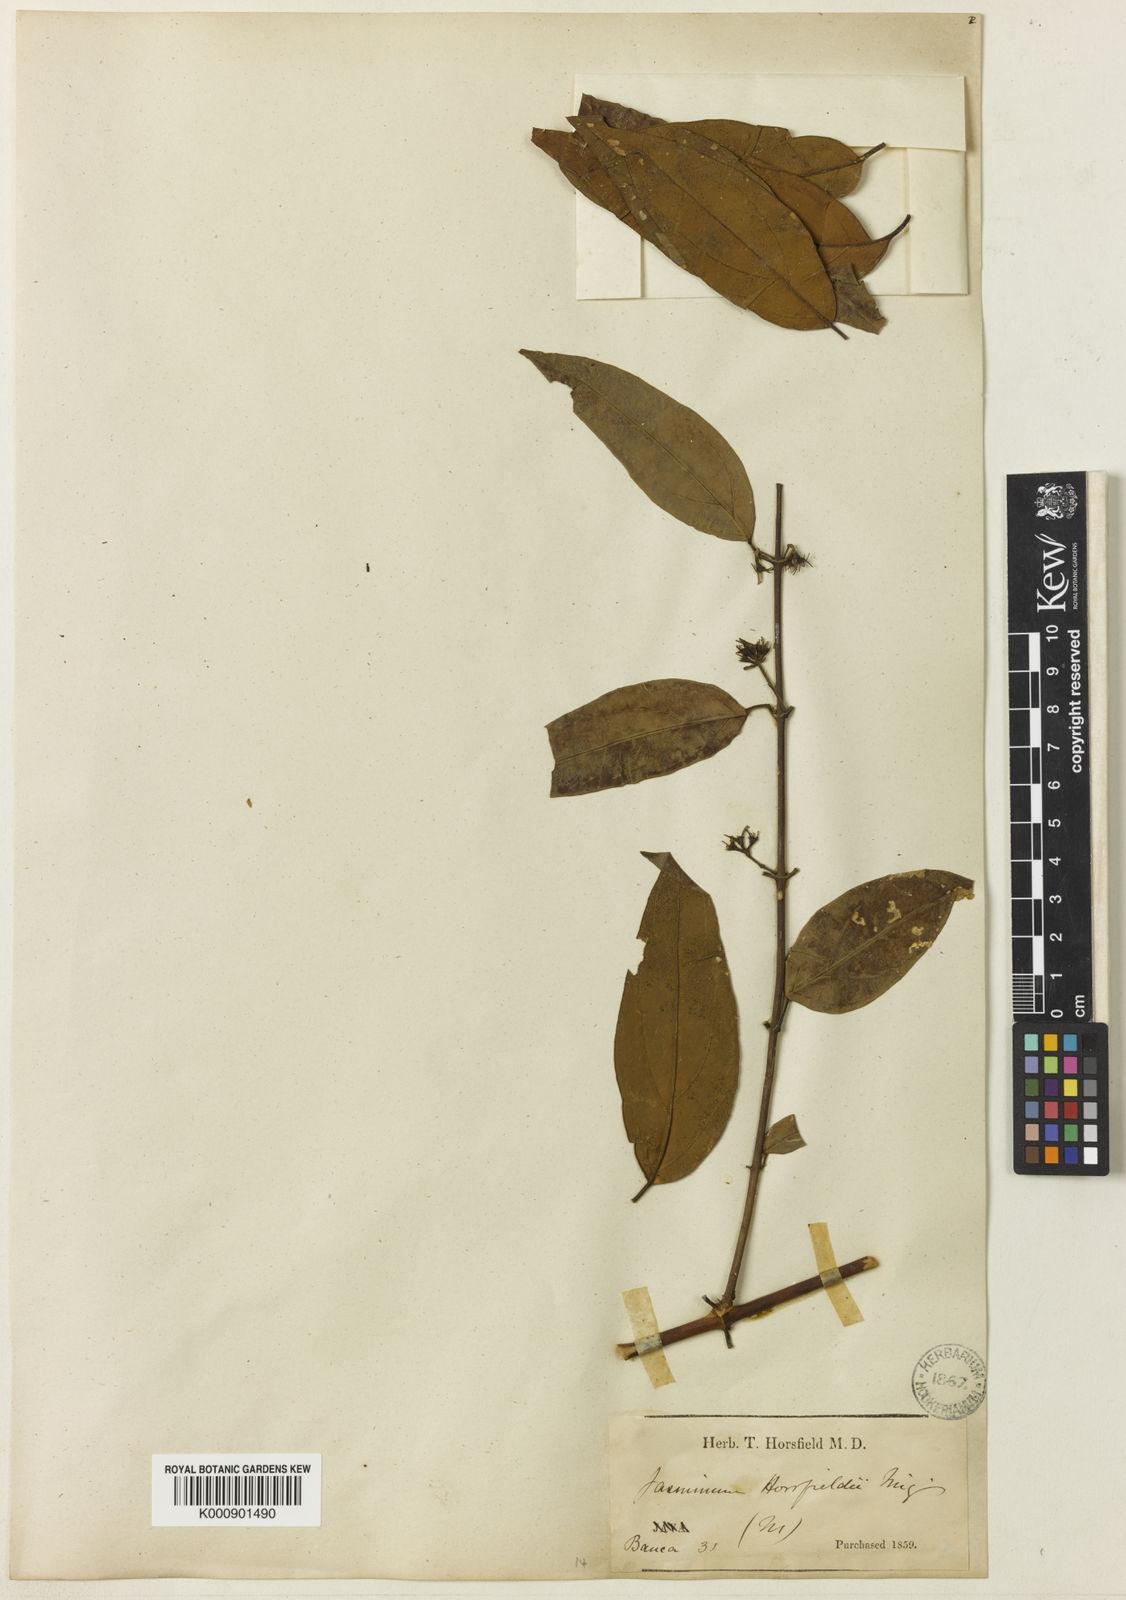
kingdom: Plantae
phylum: Tracheophyta
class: Magnoliopsida
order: Lamiales
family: Oleaceae
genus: Jasminum
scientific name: Jasminum elongatum
